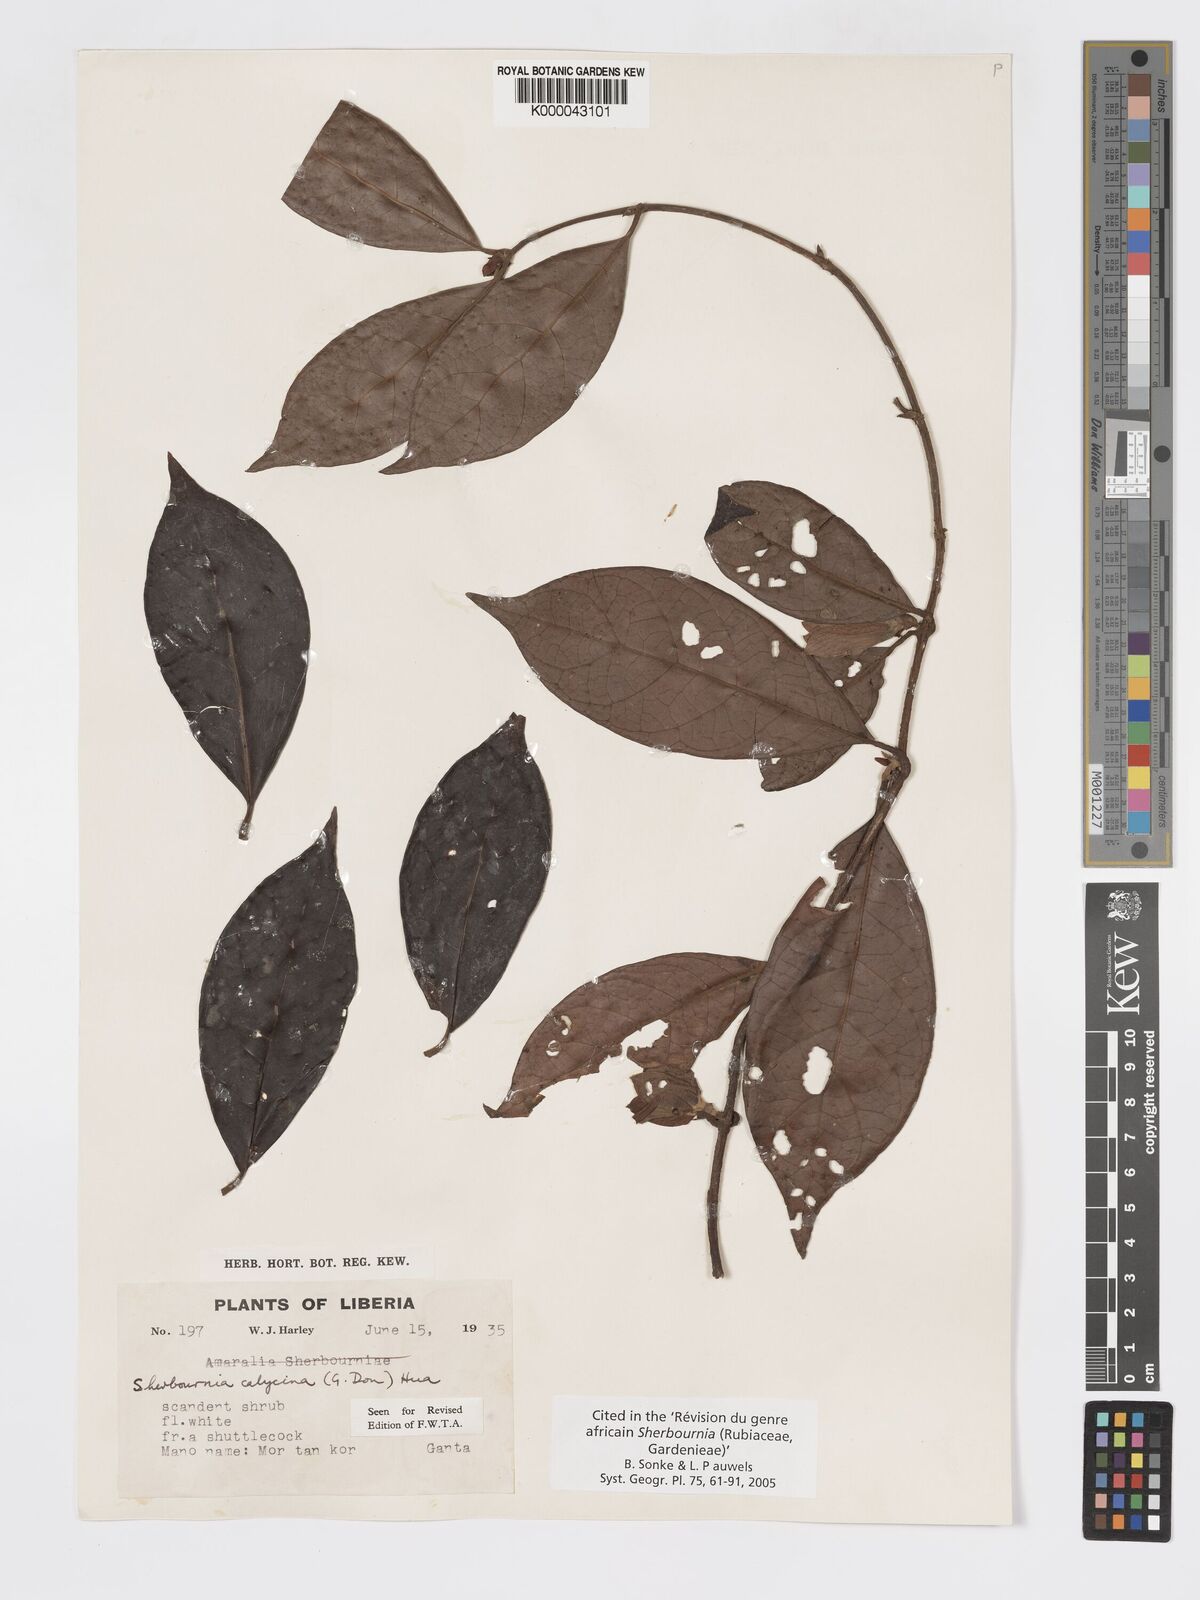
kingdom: Plantae
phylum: Tracheophyta
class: Magnoliopsida
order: Gentianales
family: Rubiaceae
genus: Sherbournia
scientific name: Sherbournia calycina
